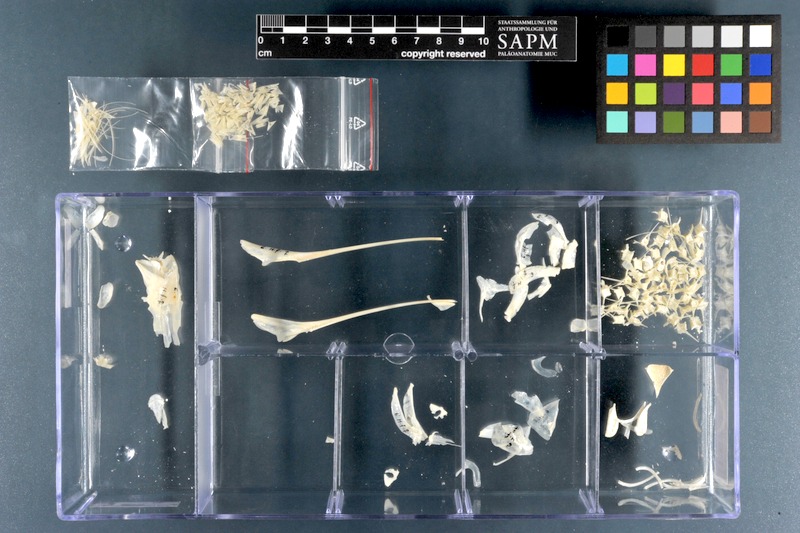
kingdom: Animalia
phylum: Chordata
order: Beloniformes
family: Hemiramphidae
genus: Hemiramphus
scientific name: Hemiramphus far
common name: Black-barred halfbeak
